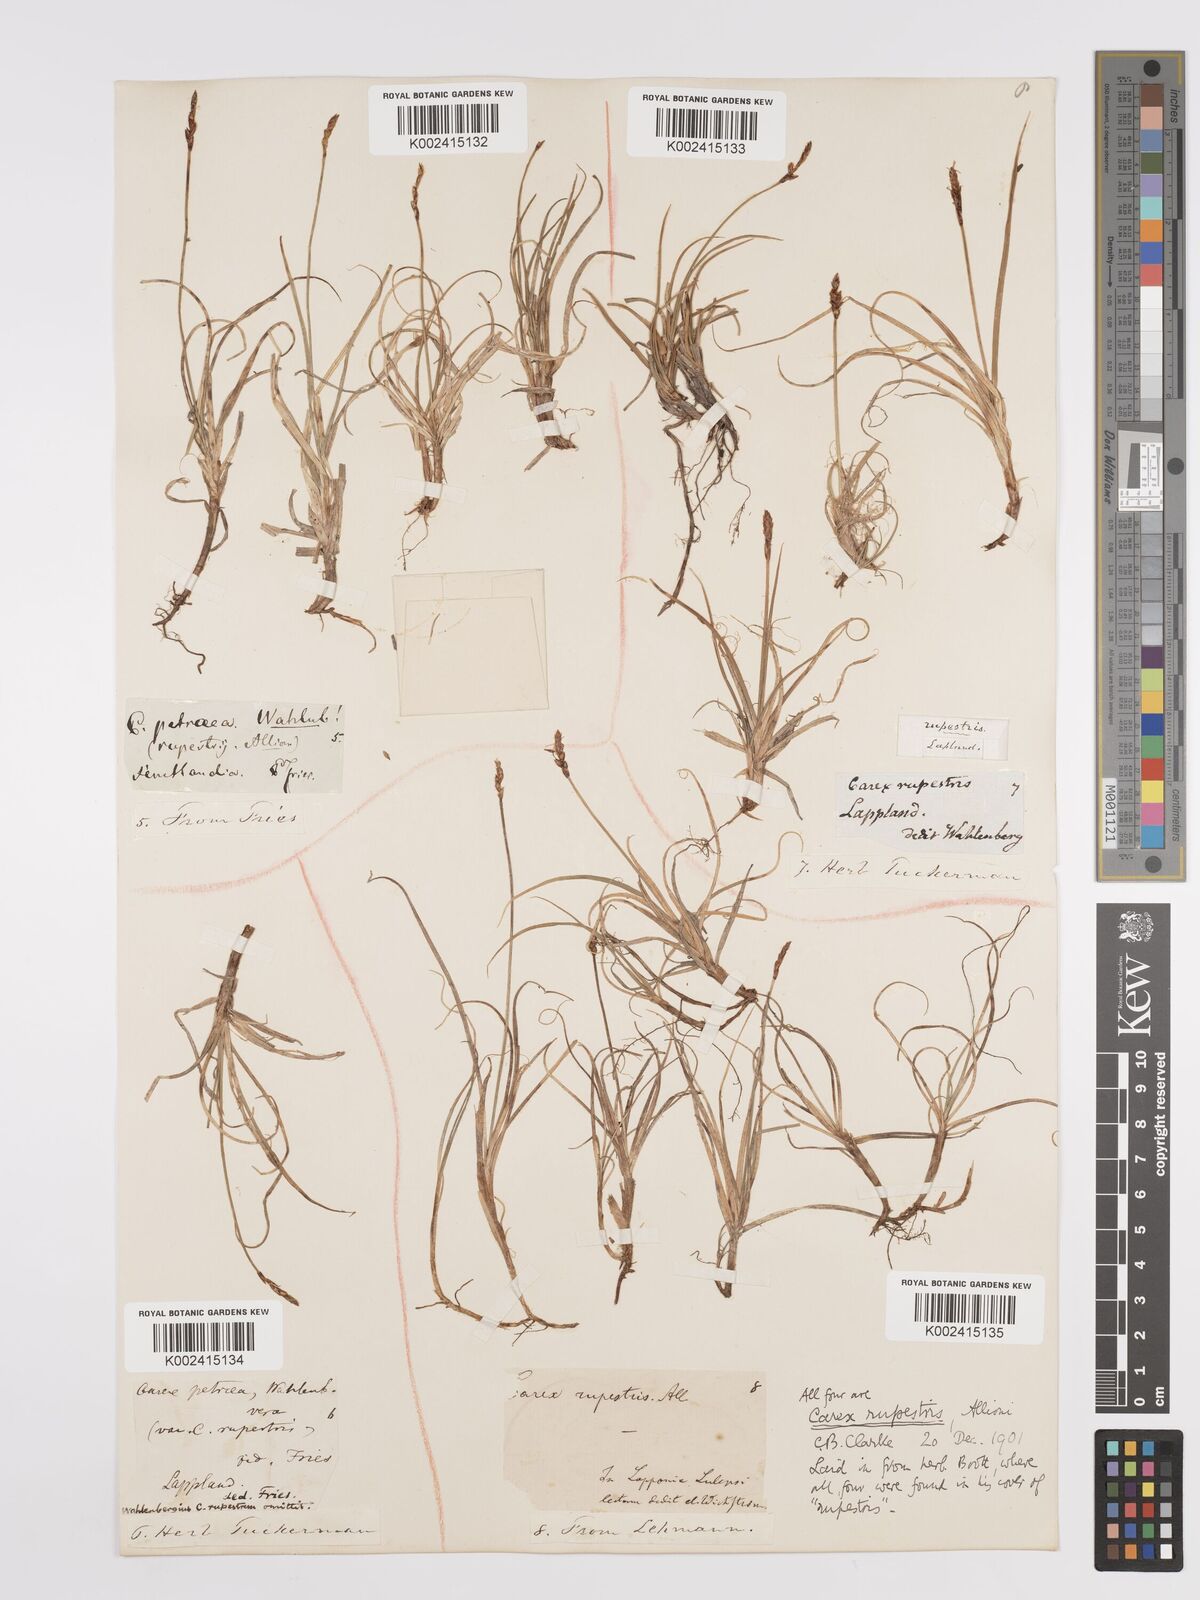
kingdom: Plantae
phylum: Tracheophyta
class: Liliopsida
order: Poales
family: Cyperaceae
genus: Carex
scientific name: Carex rupestris
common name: Rock sedge
